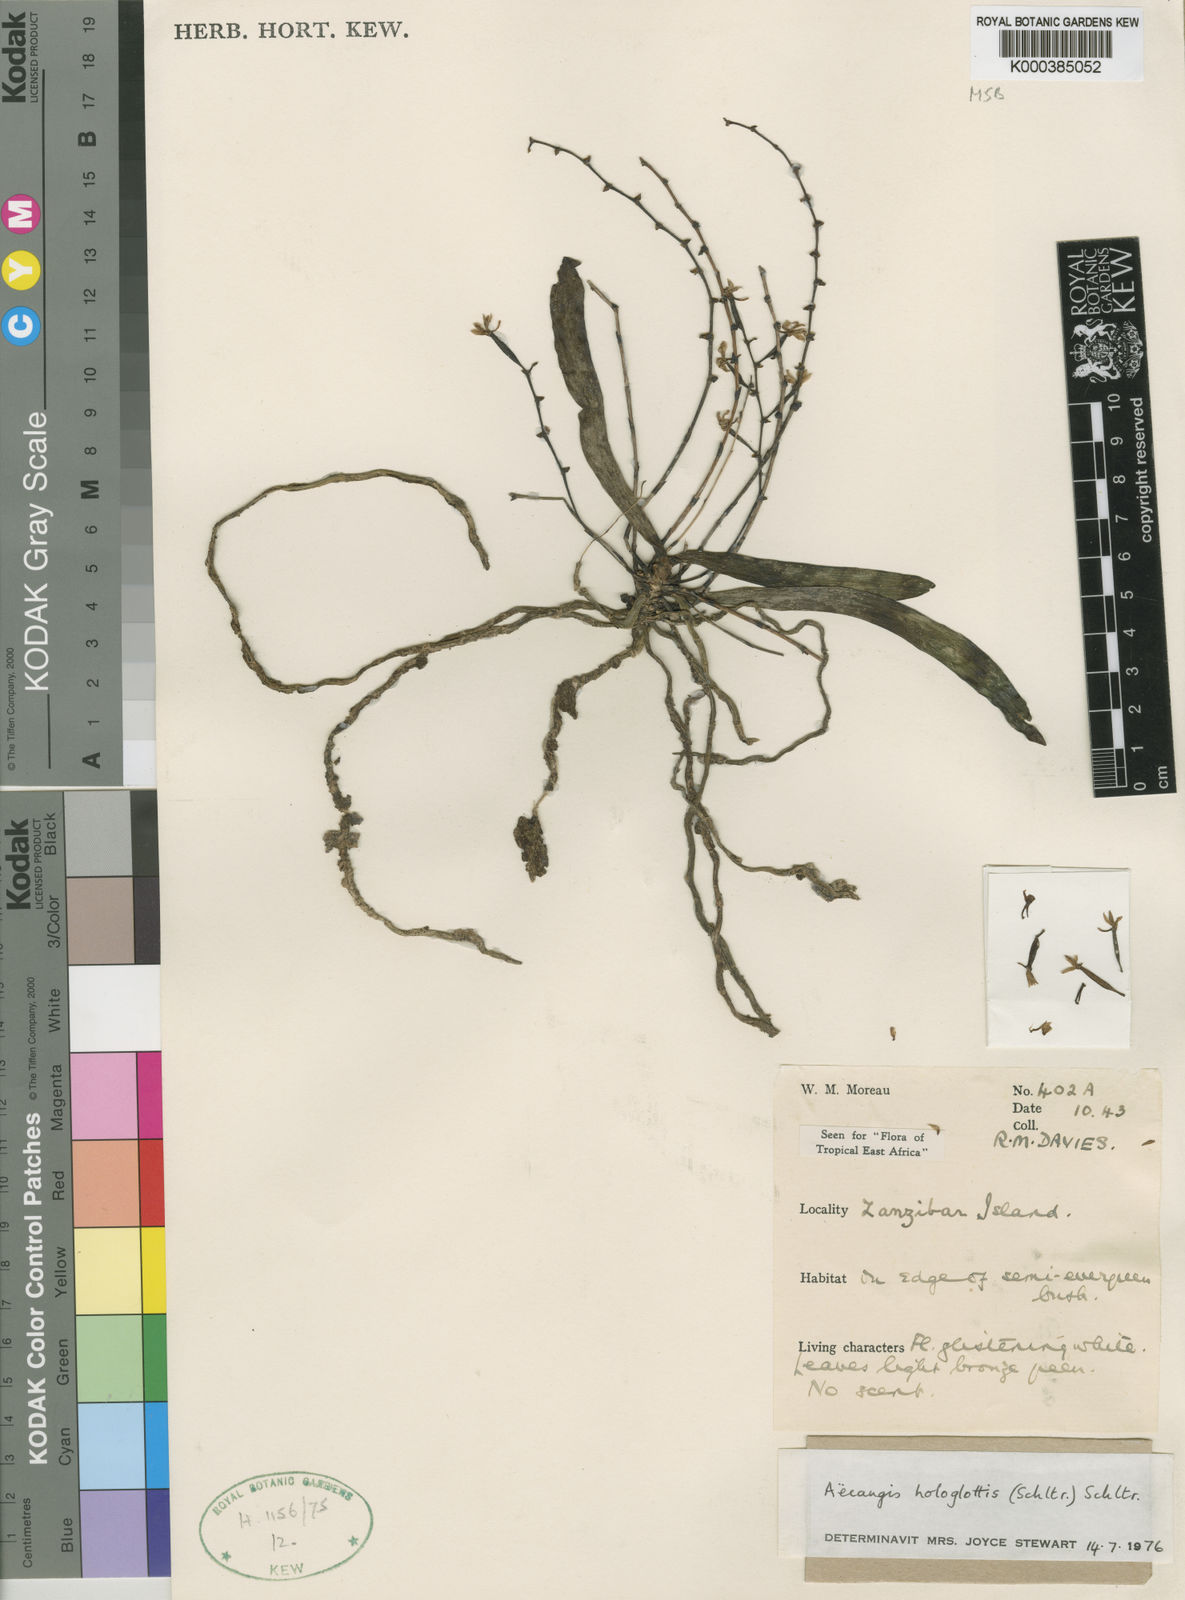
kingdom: Plantae
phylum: Tracheophyta
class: Liliopsida
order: Asparagales
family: Orchidaceae
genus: Aerangis
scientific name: Aerangis hologlottis
